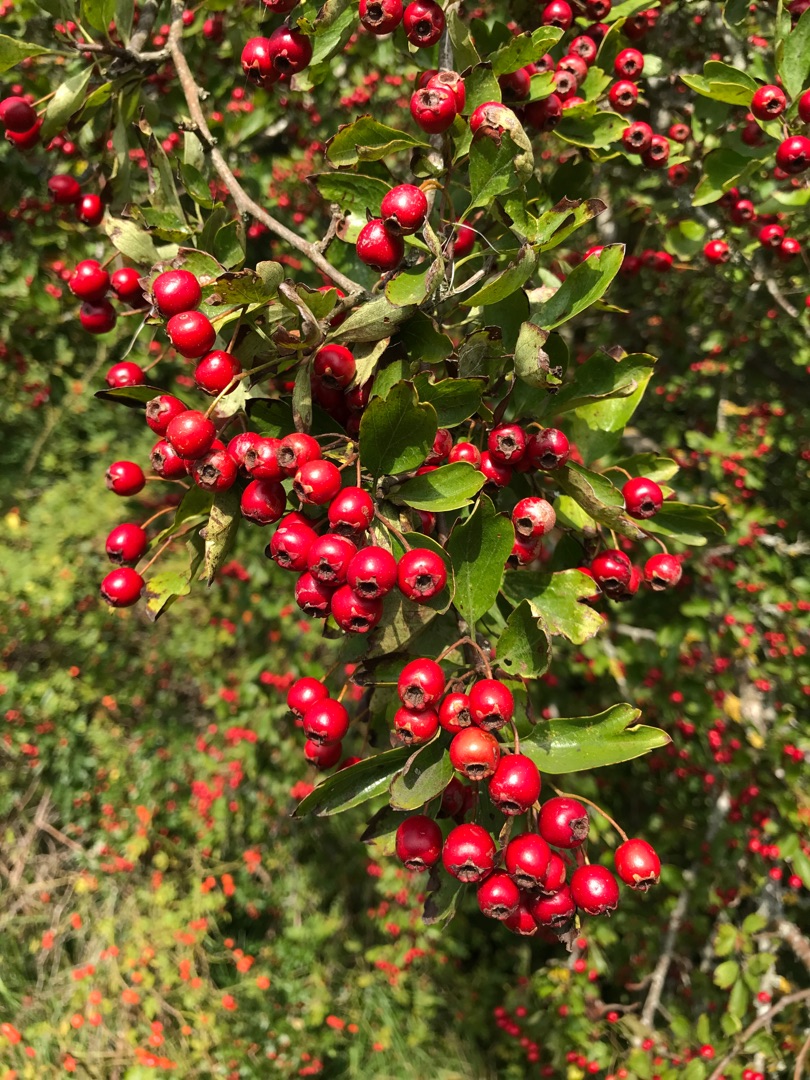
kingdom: Plantae
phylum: Tracheophyta
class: Magnoliopsida
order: Rosales
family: Rosaceae
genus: Crataegus
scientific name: Crataegus
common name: Hvidtjørnslægten
